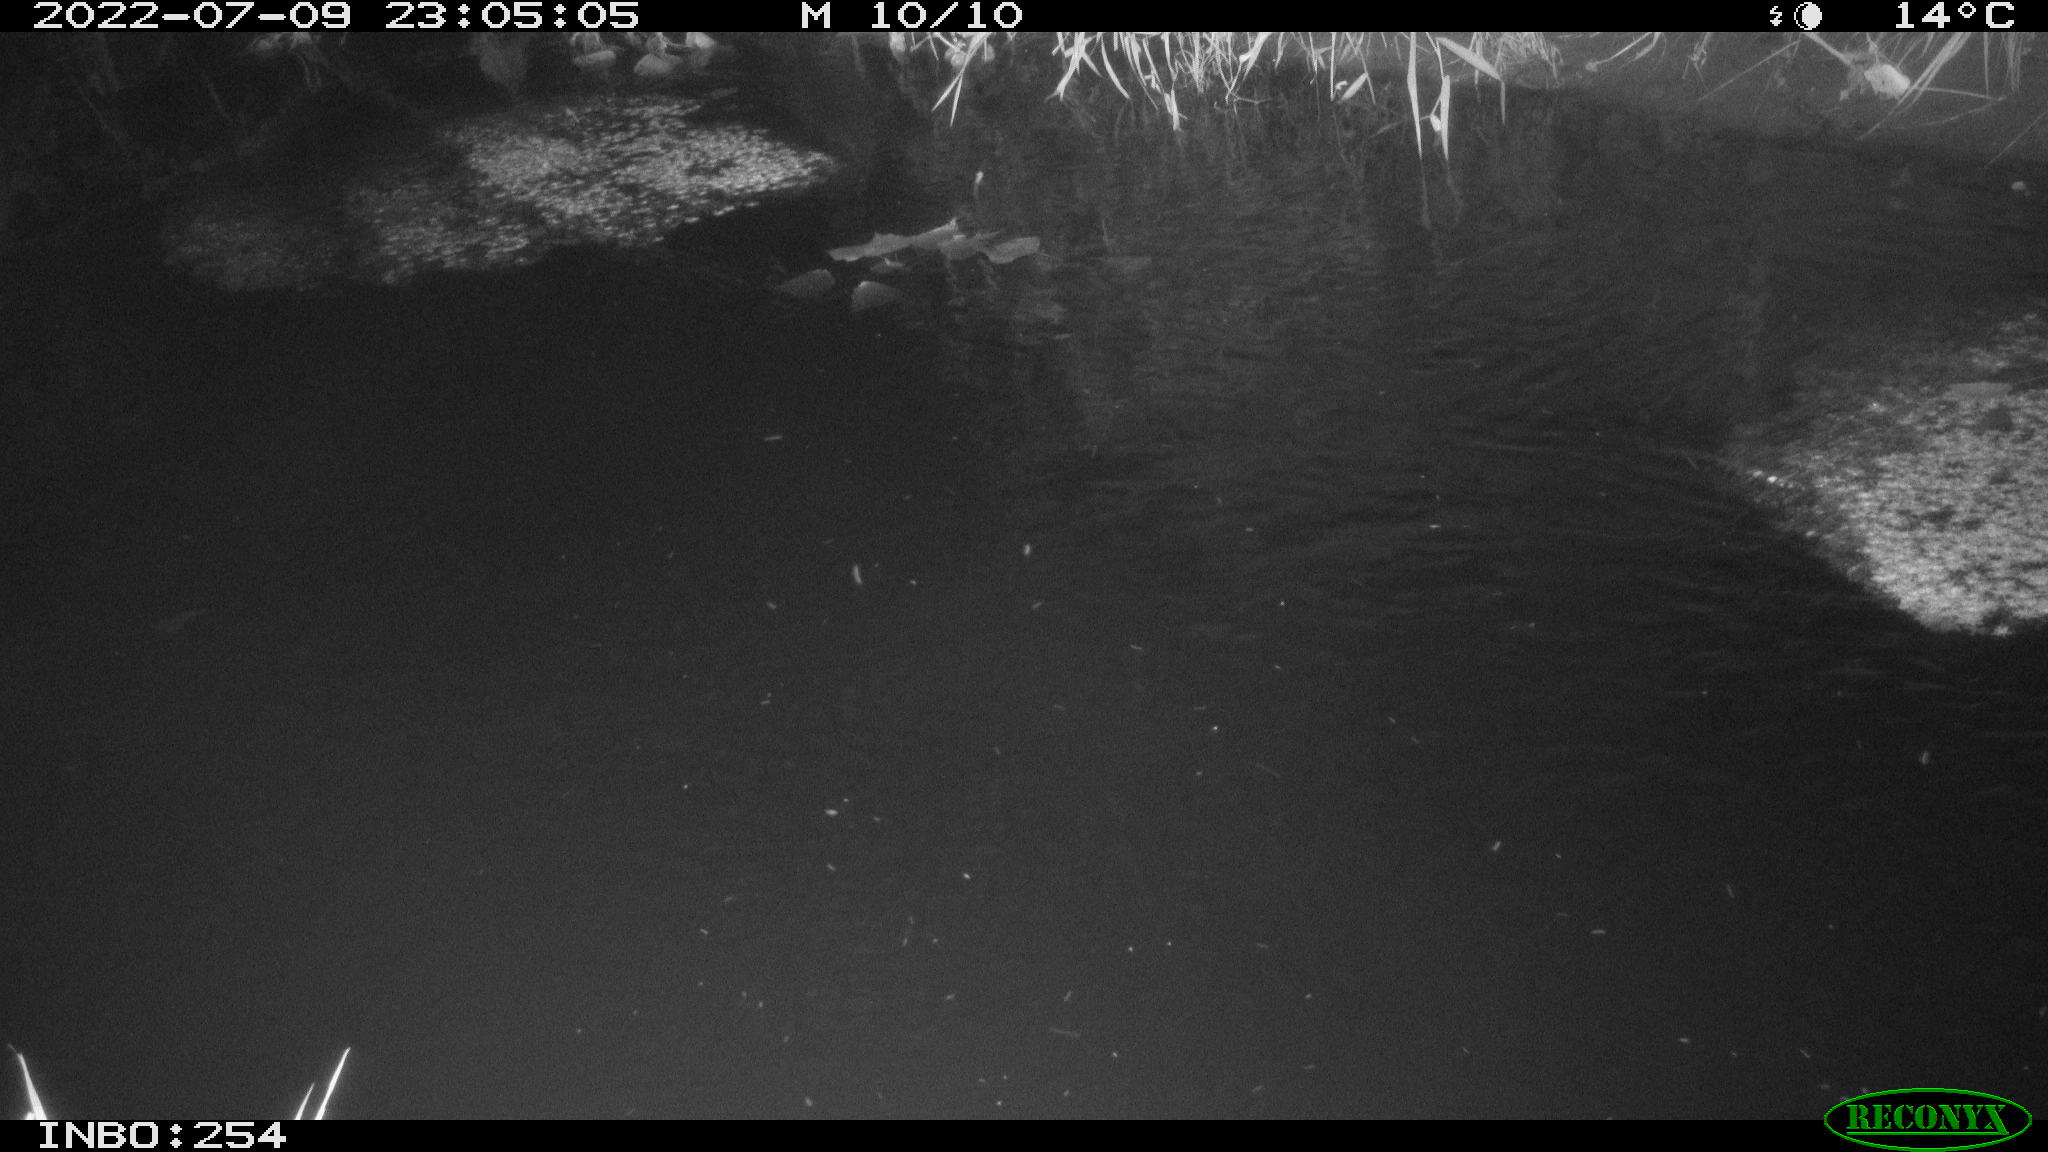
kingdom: Animalia
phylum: Chordata
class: Aves
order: Anseriformes
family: Anatidae
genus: Anas
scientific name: Anas platyrhynchos
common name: Mallard
